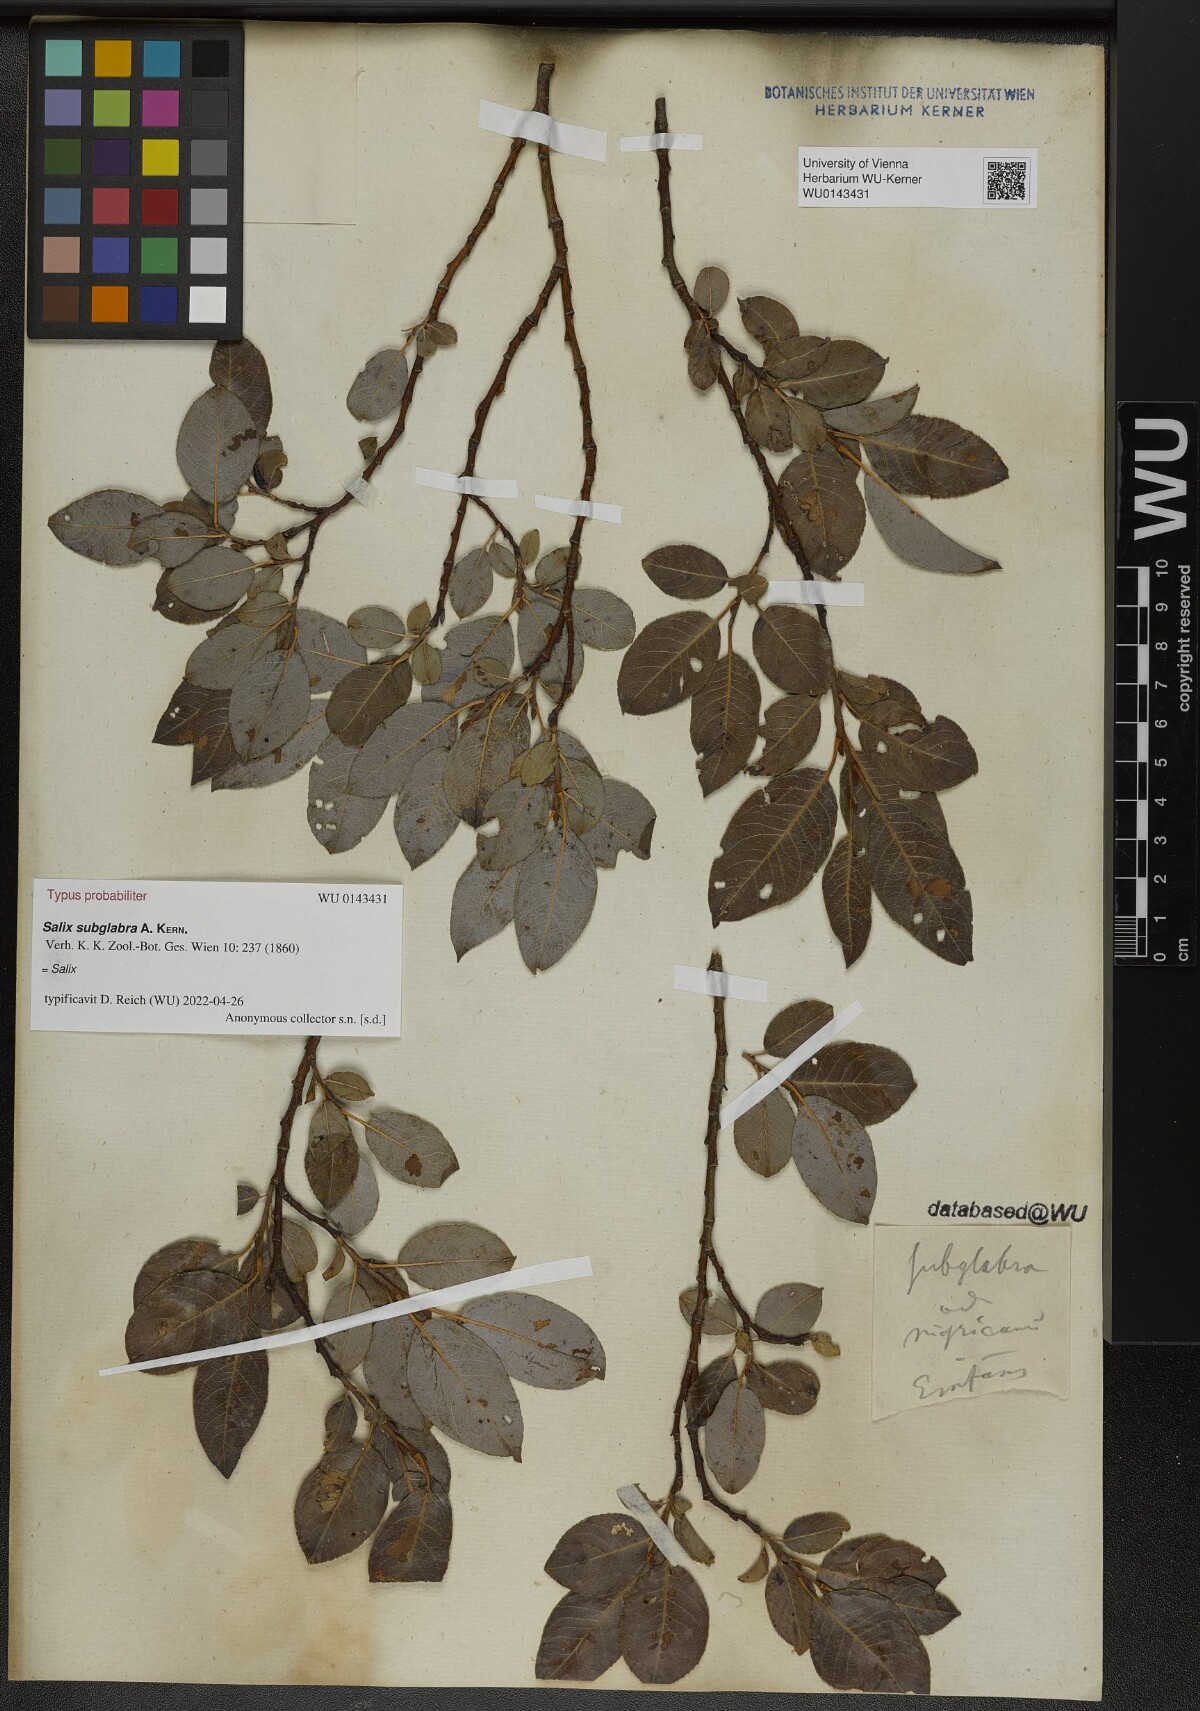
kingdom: Plantae
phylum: Tracheophyta
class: Magnoliopsida
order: Malpighiales
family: Salicaceae
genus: Salix
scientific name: Salix subglabra
